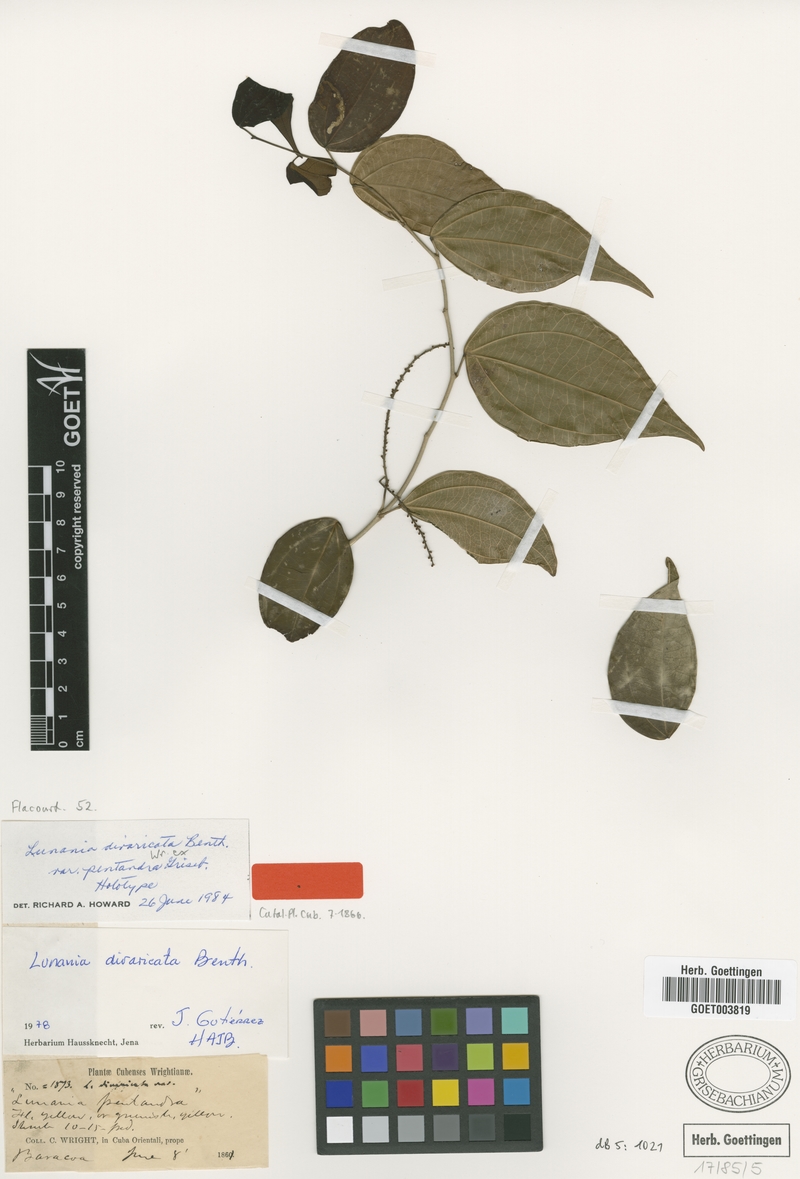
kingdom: Plantae
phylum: Tracheophyta
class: Magnoliopsida
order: Malpighiales
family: Salicaceae
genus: Lunania
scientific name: Lunania divaricata
